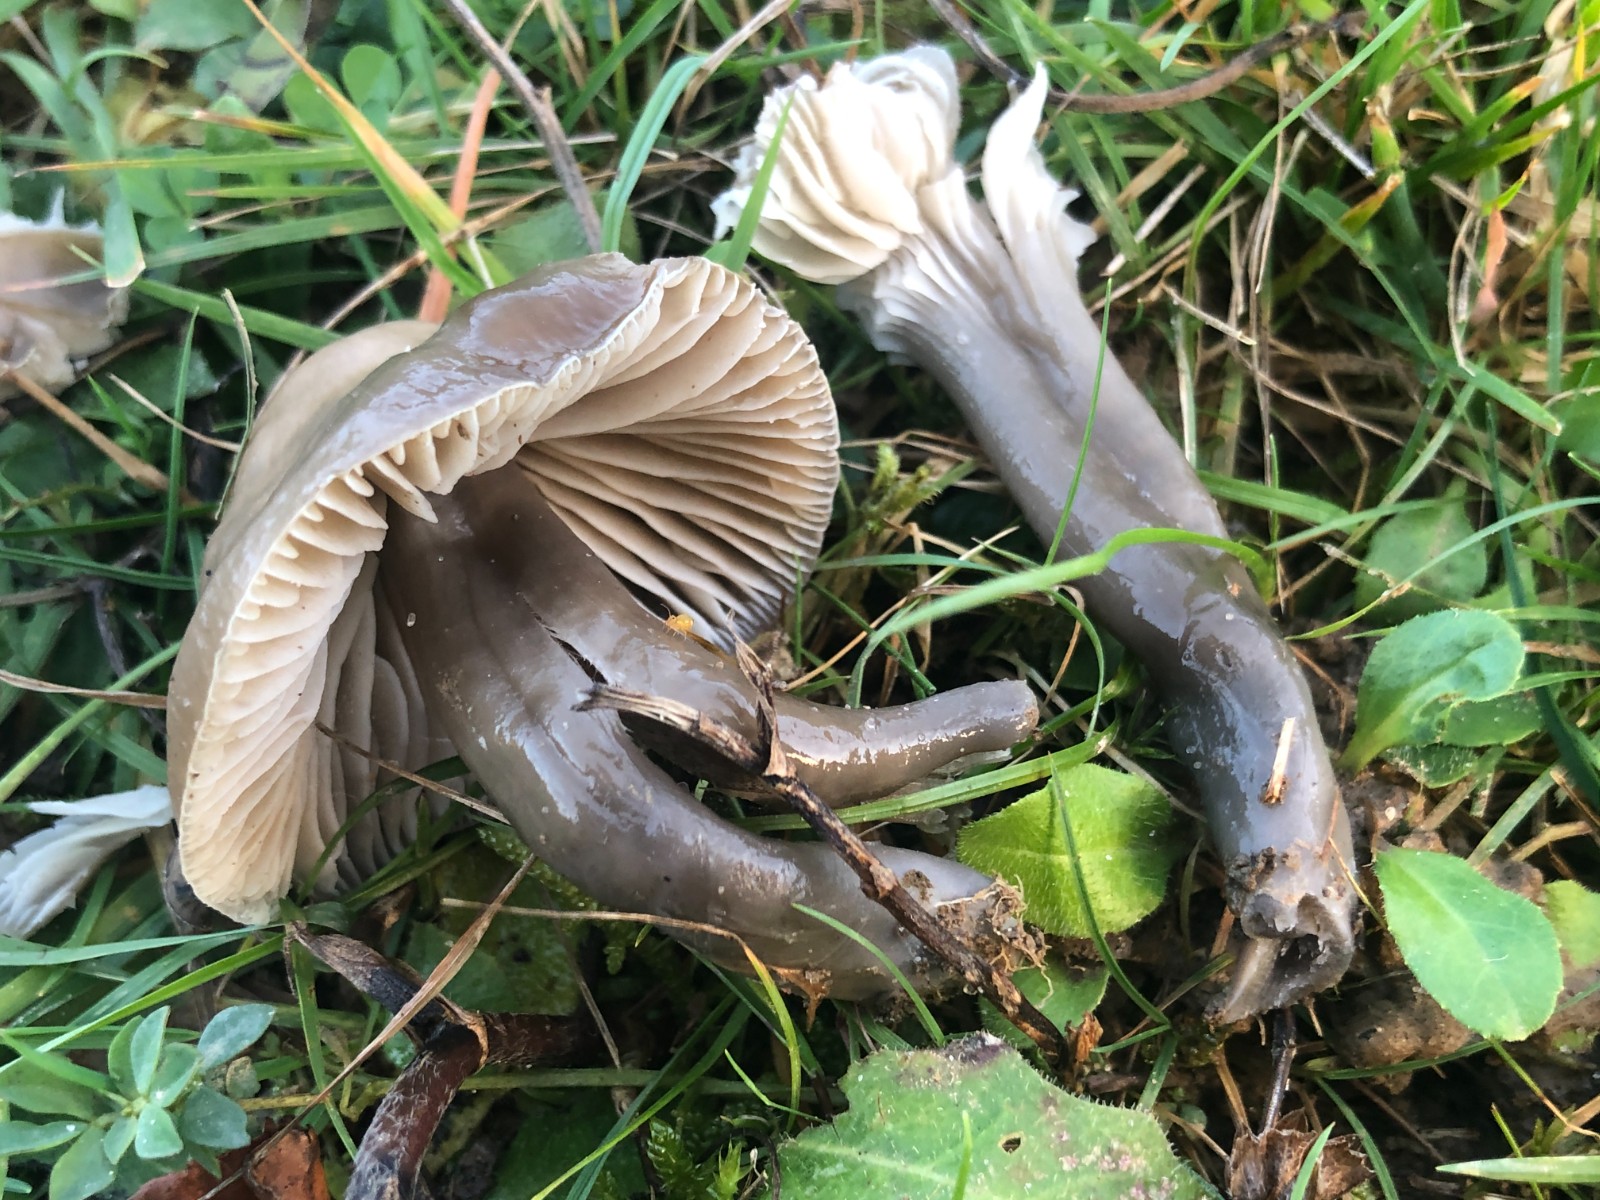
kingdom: Fungi
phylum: Basidiomycota
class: Agaricomycetes
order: Agaricales
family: Hygrophoraceae
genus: Gliophorus
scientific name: Gliophorus irrigatus
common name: slimet vokshat
